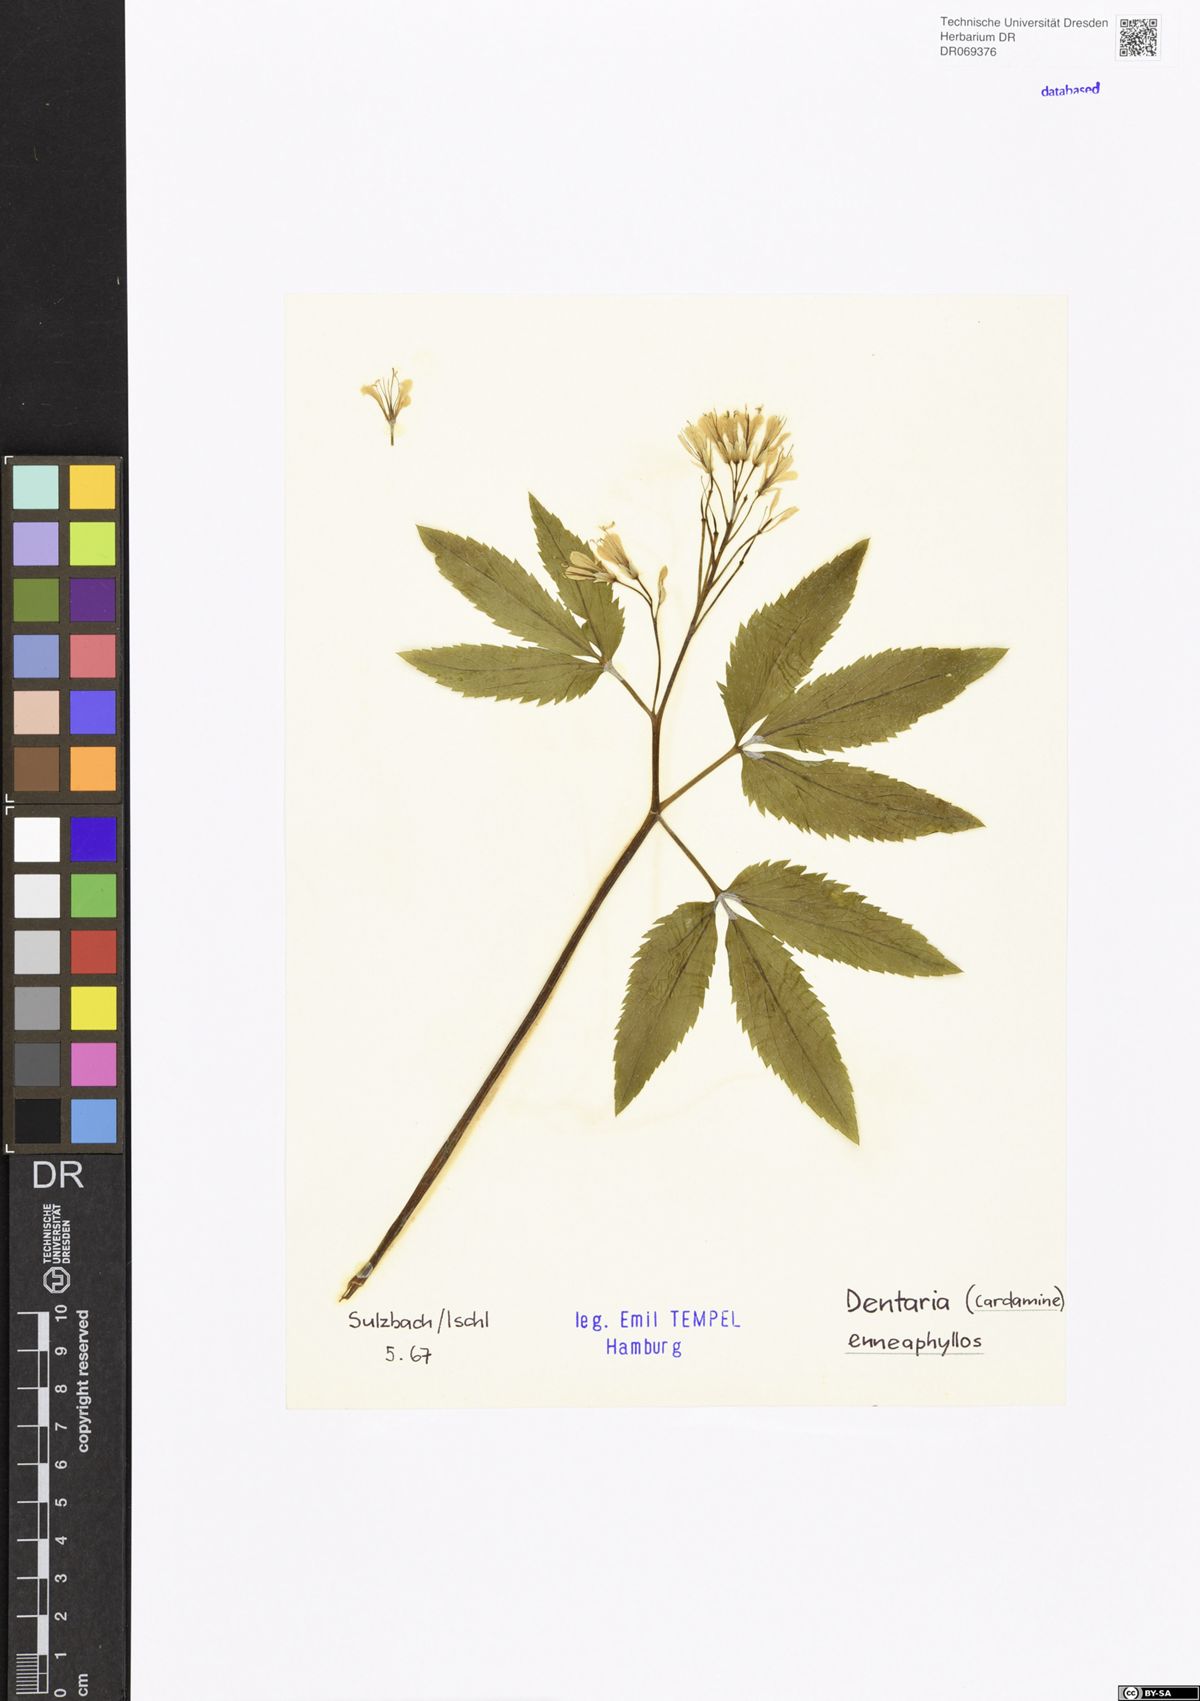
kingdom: Plantae
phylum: Tracheophyta
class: Magnoliopsida
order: Brassicales
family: Brassicaceae
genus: Cardamine
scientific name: Cardamine enneaphyllos
